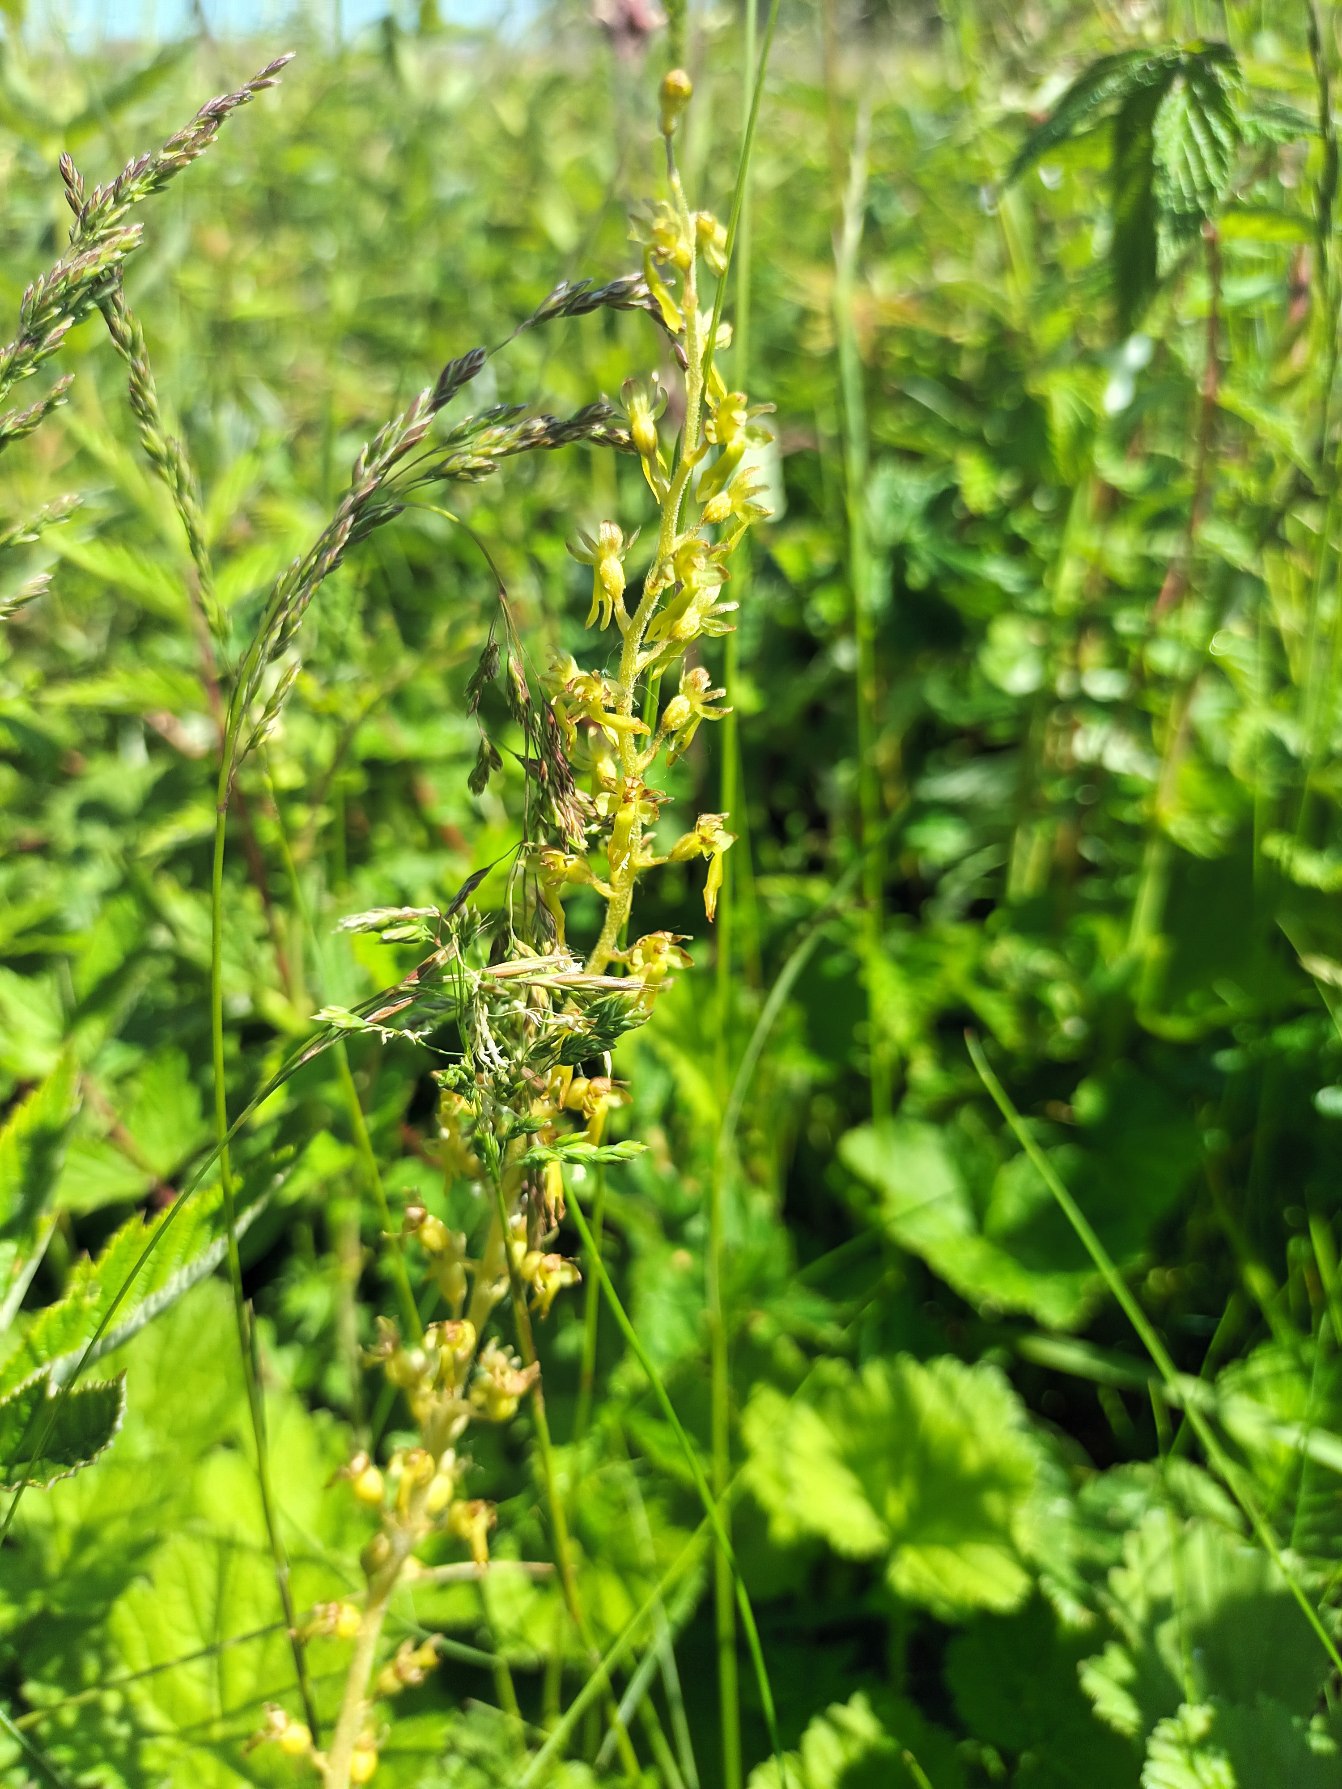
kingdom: Plantae
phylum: Tracheophyta
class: Liliopsida
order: Asparagales
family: Orchidaceae
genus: Neottia
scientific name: Neottia ovata
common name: Ægbladet fliglæbe
